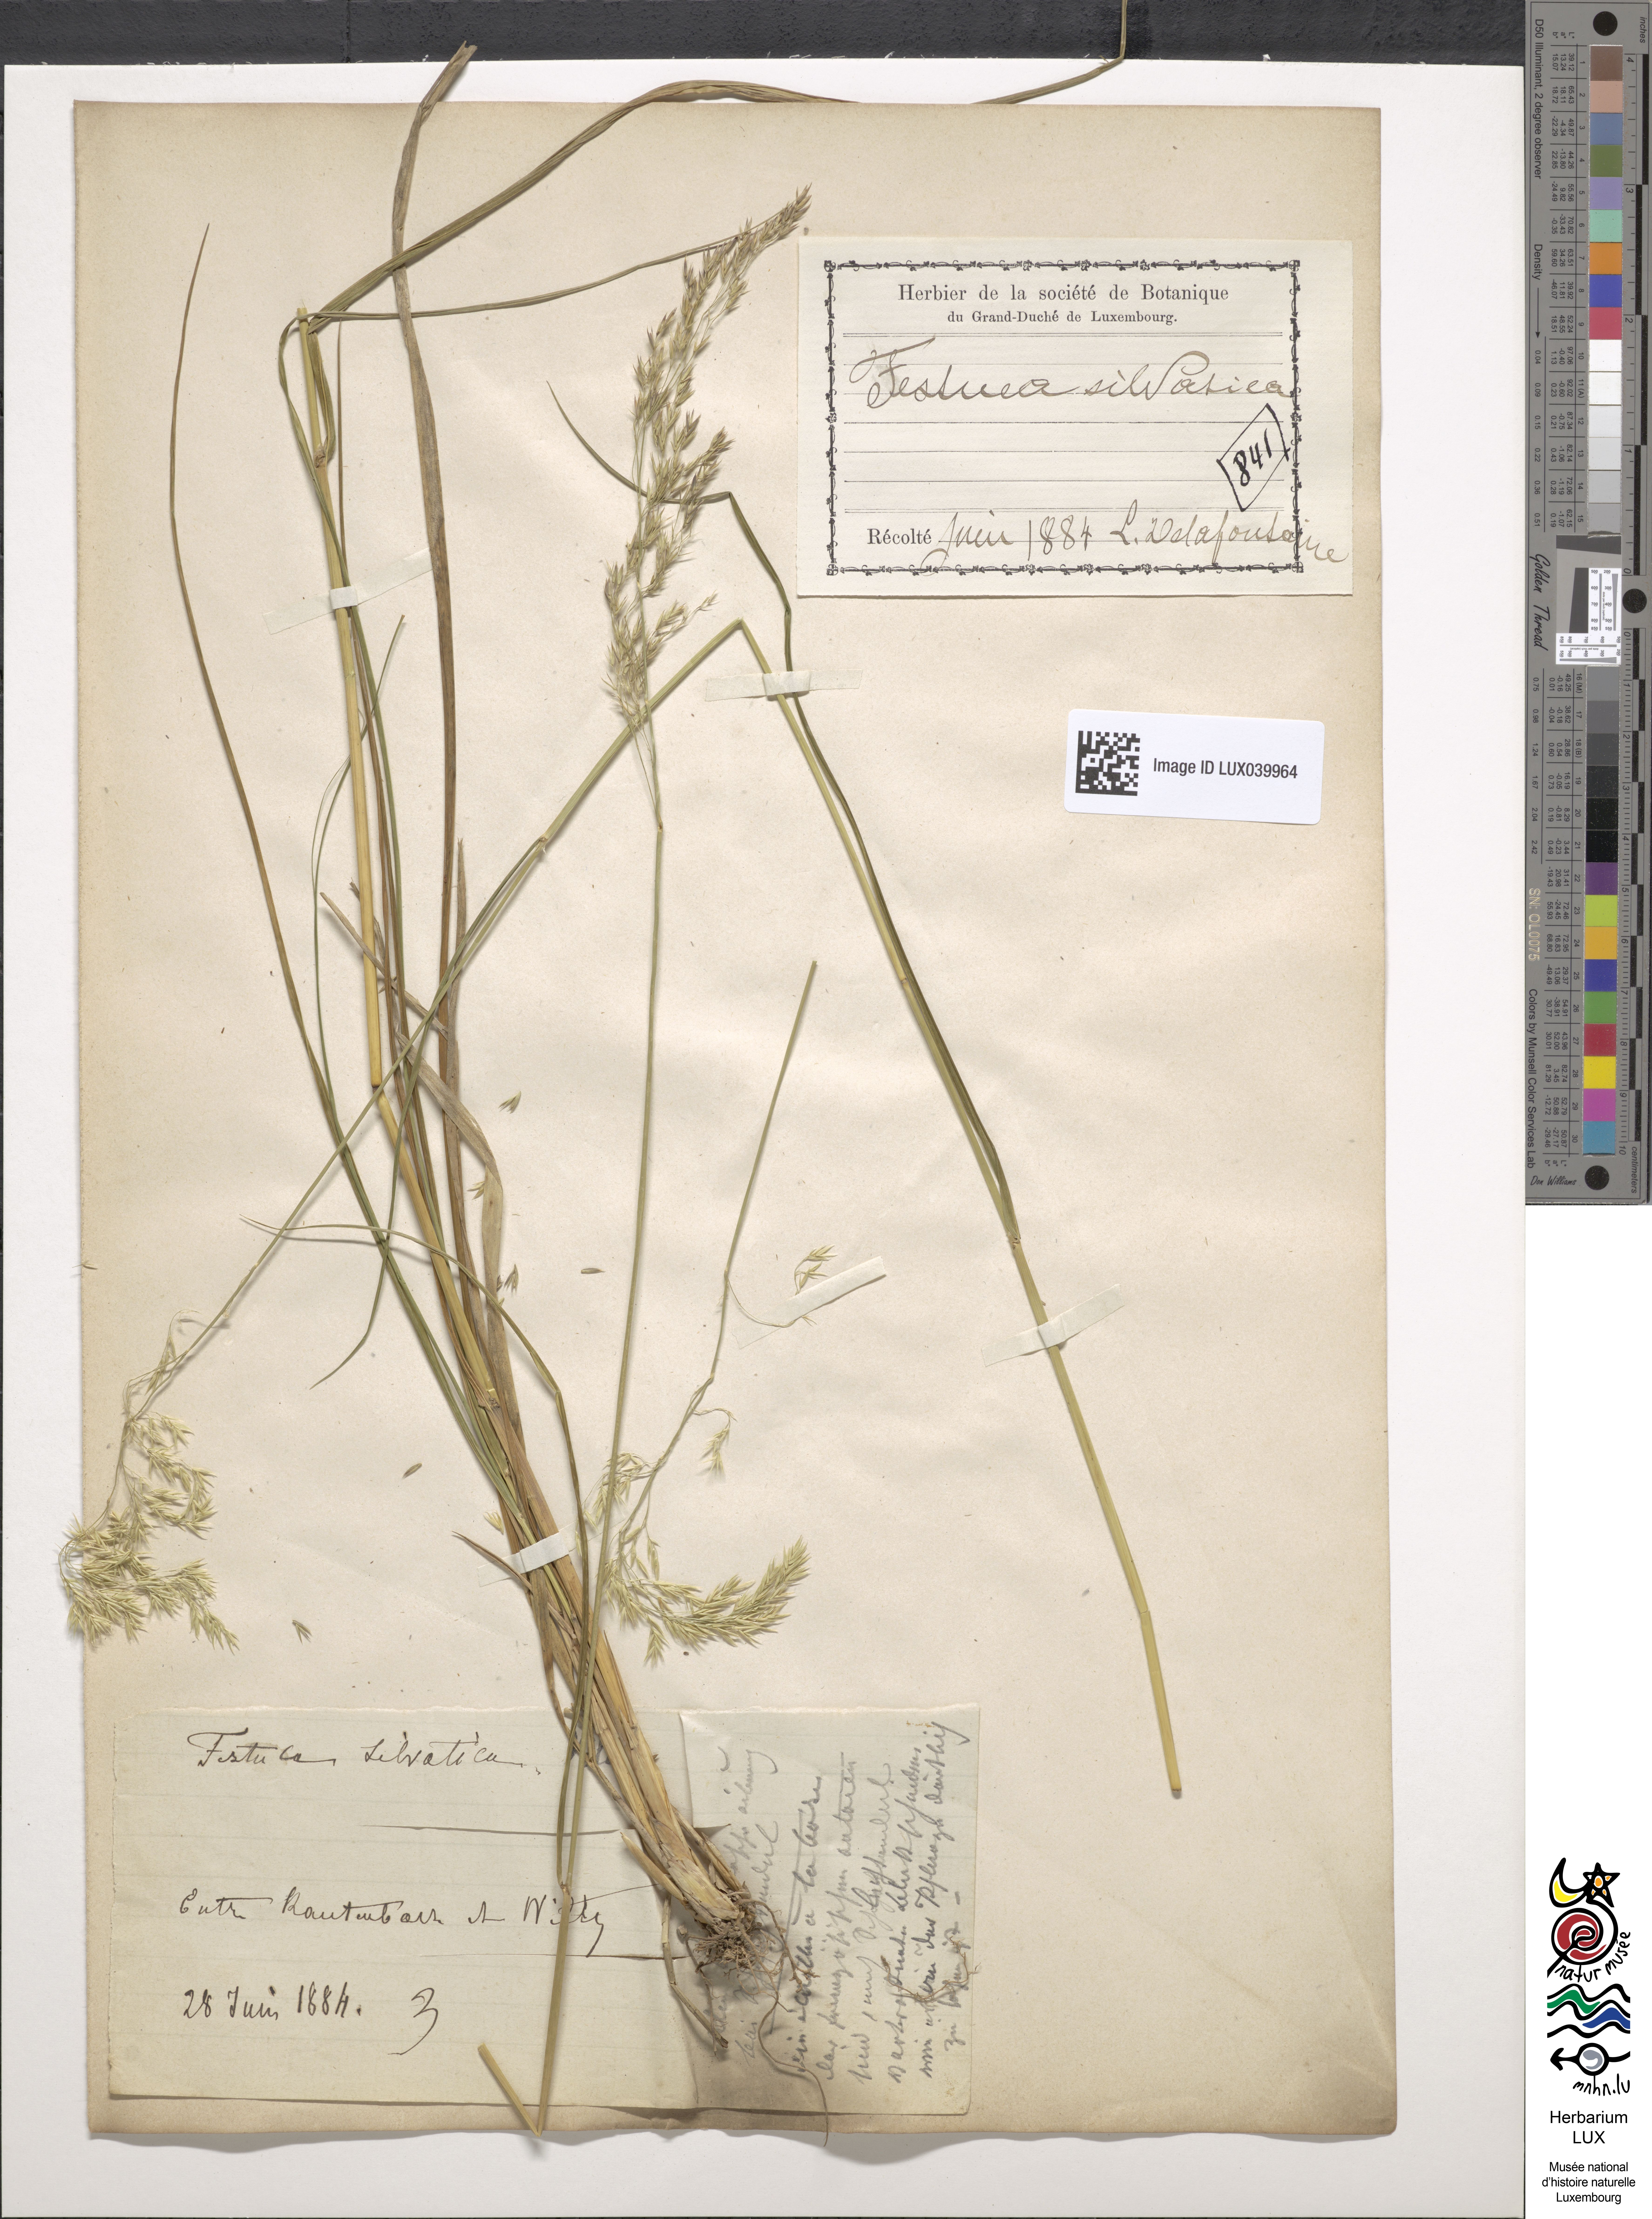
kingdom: Plantae
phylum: Tracheophyta
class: Liliopsida
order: Poales
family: Poaceae
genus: Festuca
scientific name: Festuca altissima
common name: Wood fescue
